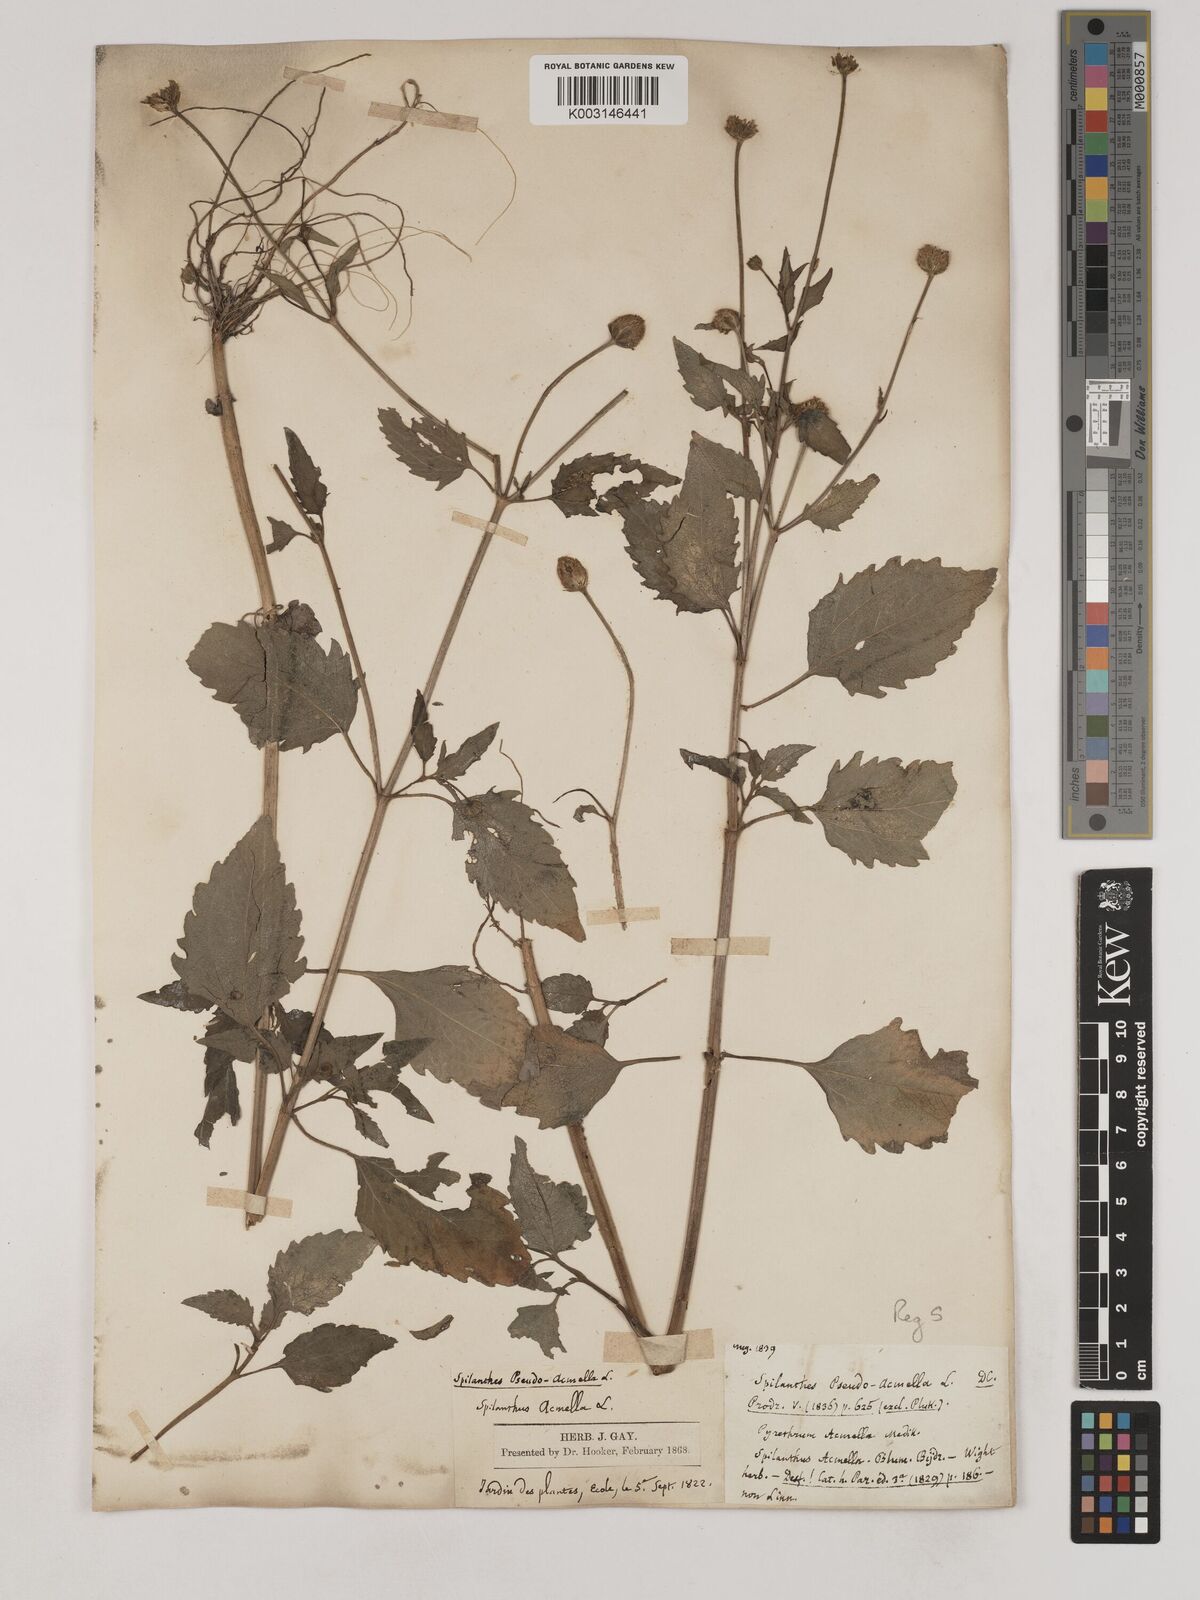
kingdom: Plantae
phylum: Tracheophyta
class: Magnoliopsida
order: Asterales
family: Asteraceae
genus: Acmella
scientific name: Acmella oleracea
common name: Brazilian cress
